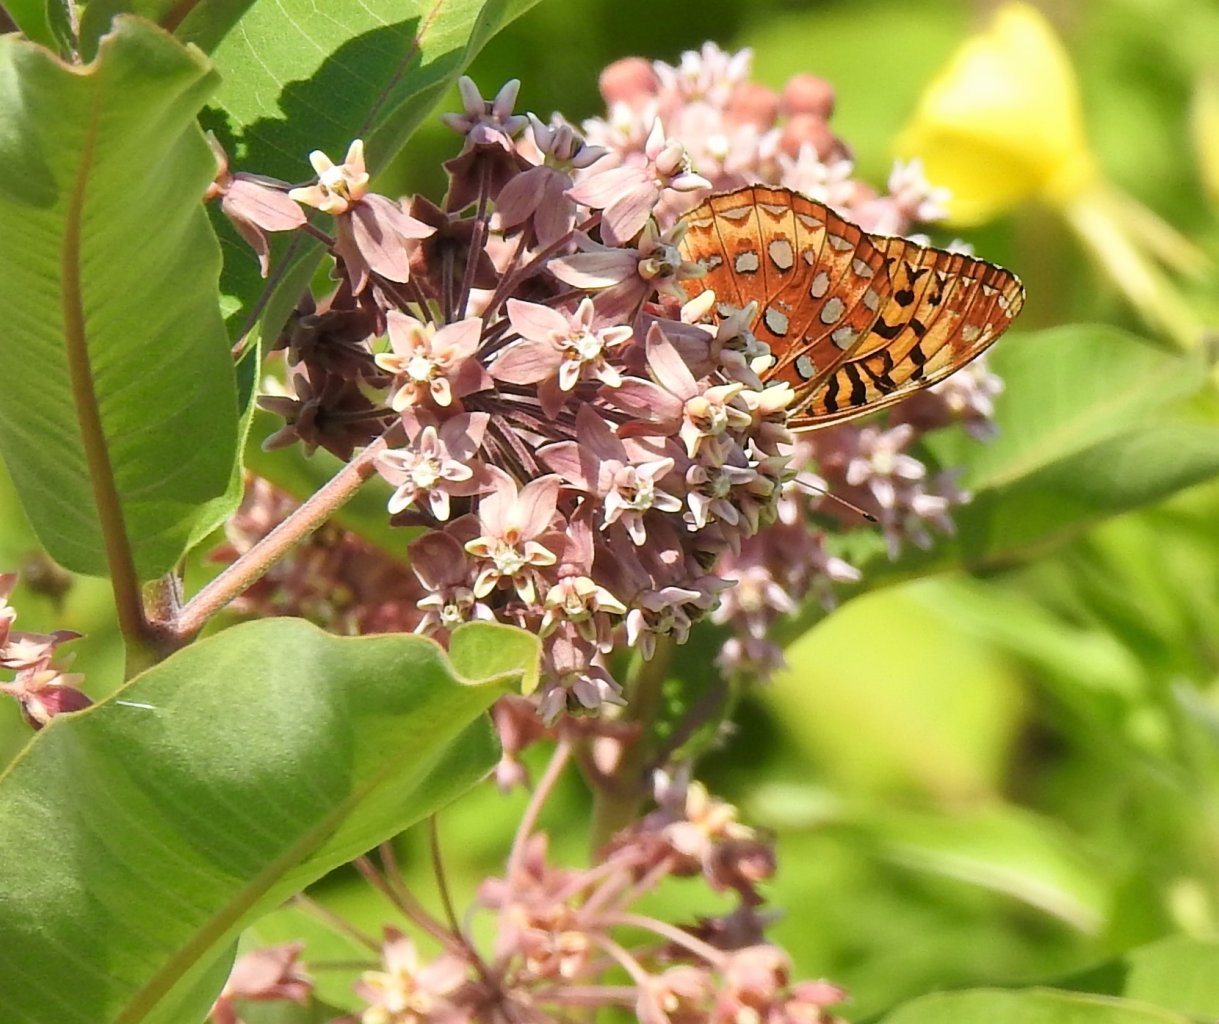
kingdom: Animalia
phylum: Arthropoda
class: Insecta
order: Lepidoptera
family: Nymphalidae
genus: Speyeria
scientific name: Speyeria cybele
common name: Great Spangled Fritillary
